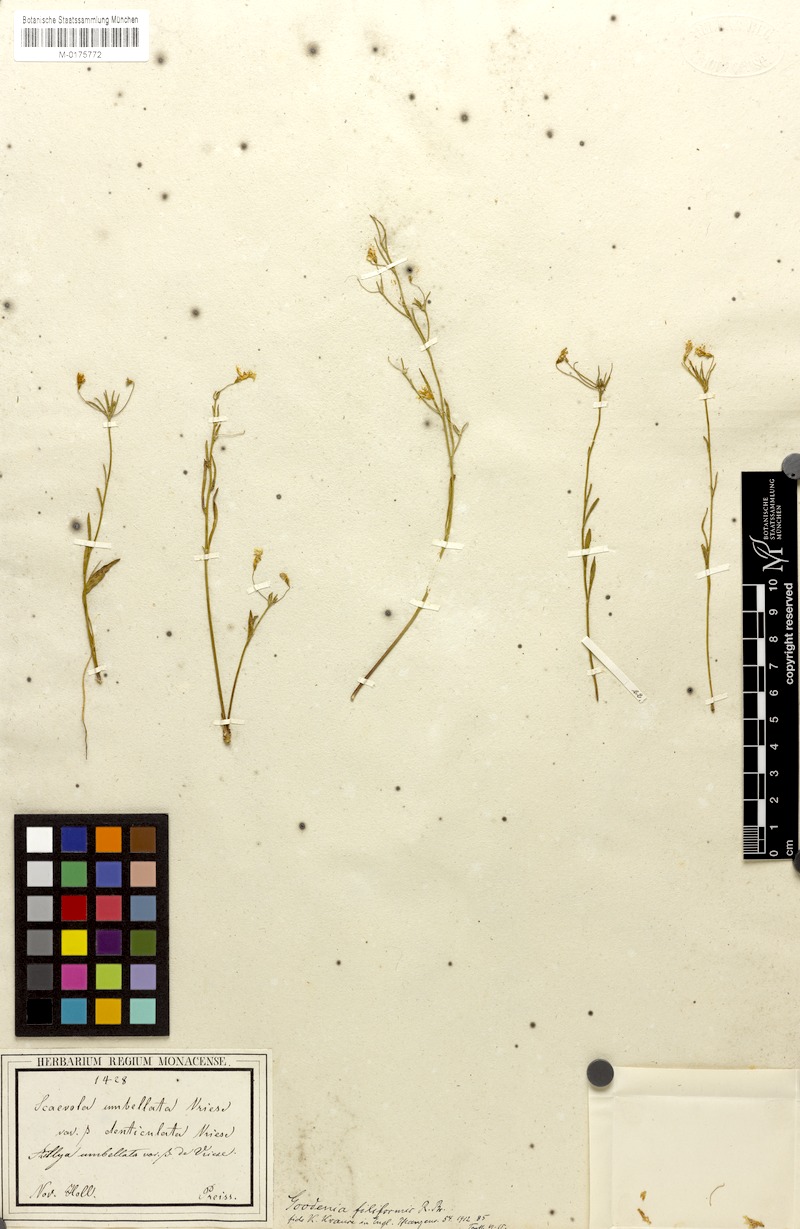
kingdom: Plantae
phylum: Tracheophyta
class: Magnoliopsida
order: Asterales
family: Goodeniaceae
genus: Goodenia
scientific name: Goodenia filiformis
